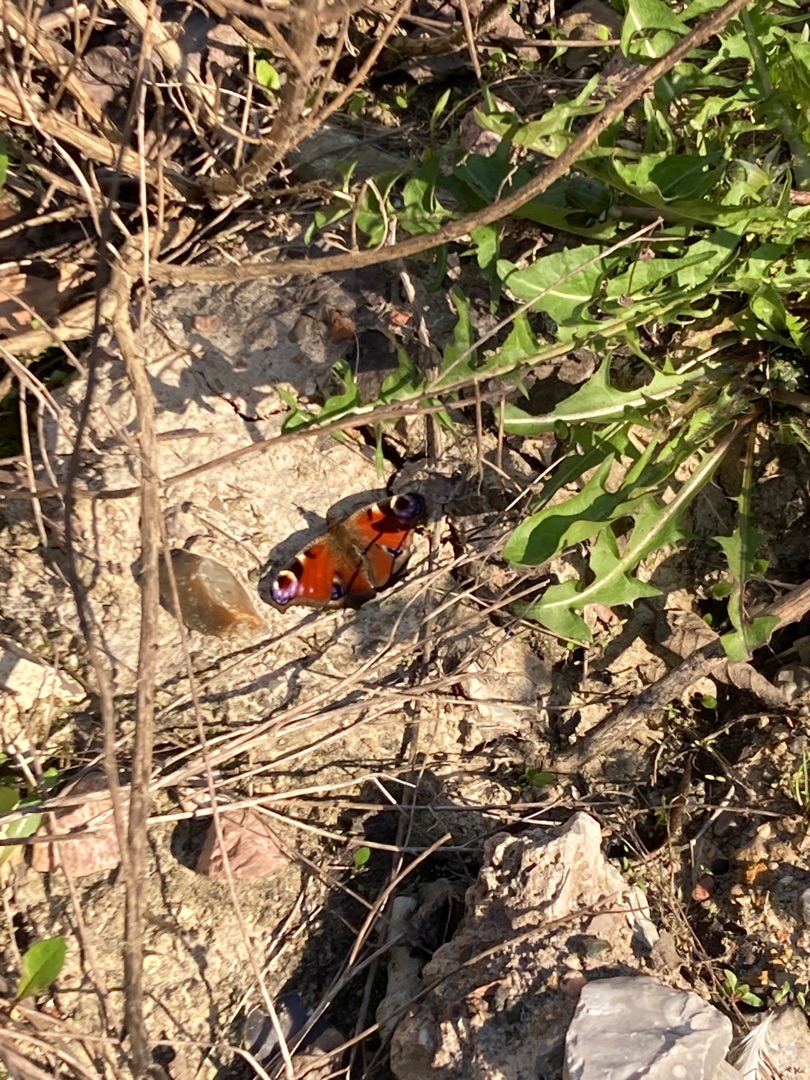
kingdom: Animalia
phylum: Arthropoda
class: Insecta
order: Lepidoptera
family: Nymphalidae
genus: Aglais
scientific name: Aglais io
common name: Dagpåfugleøje
